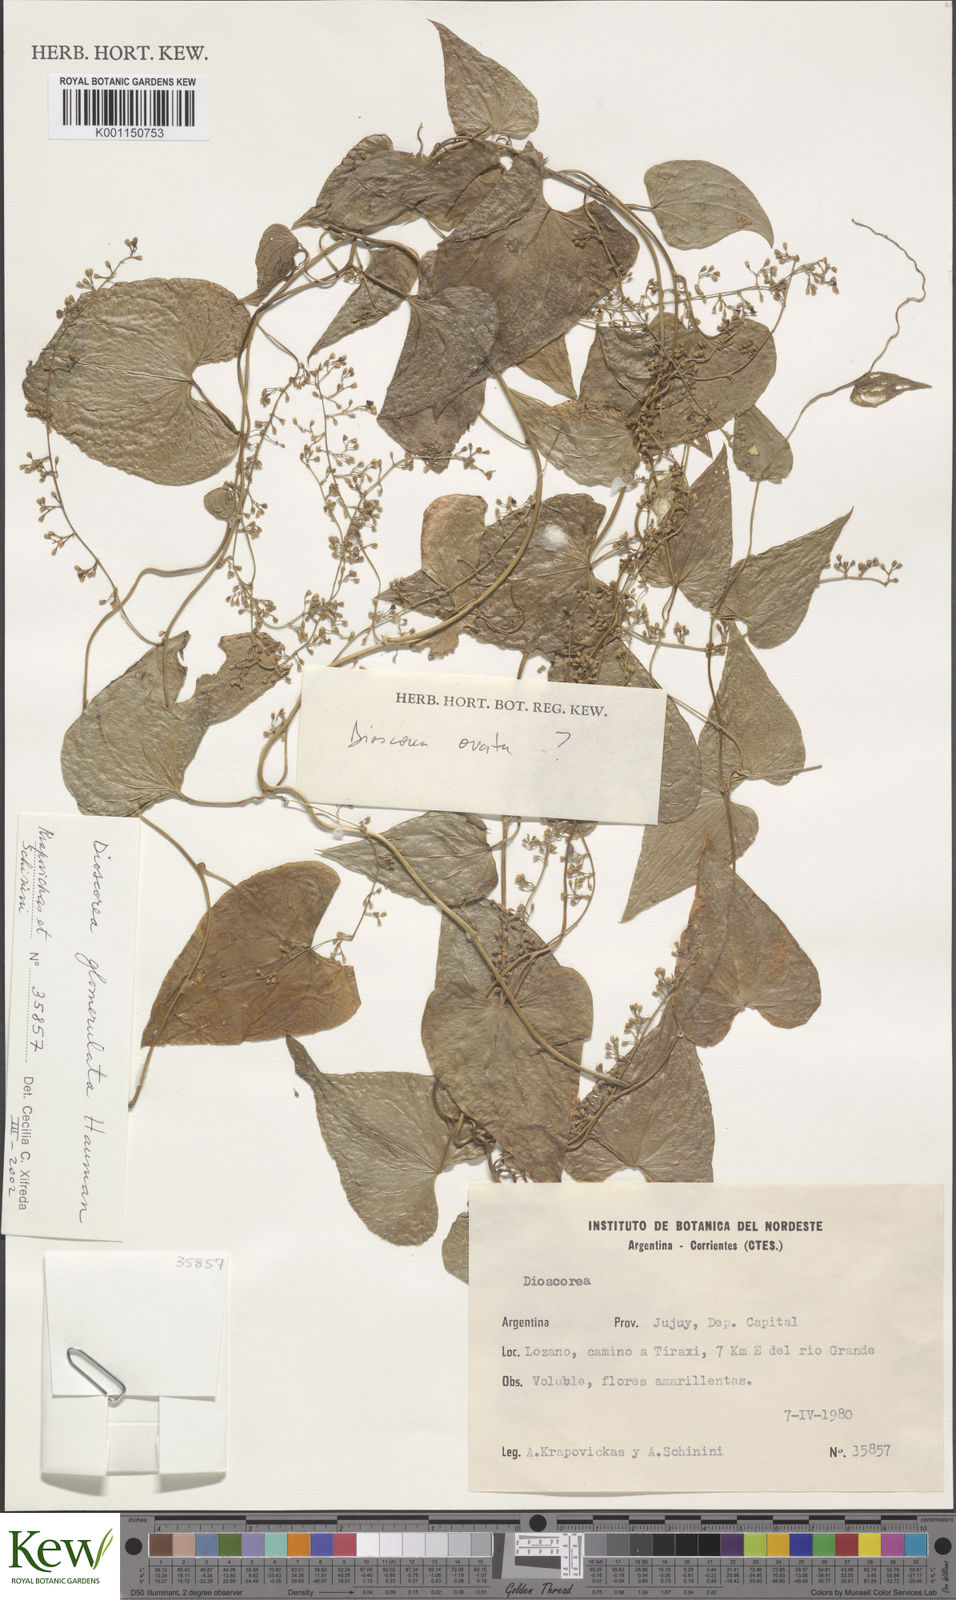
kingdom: Plantae
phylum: Tracheophyta
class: Liliopsida
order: Dioscoreales
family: Dioscoreaceae
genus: Dioscorea
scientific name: Dioscorea
